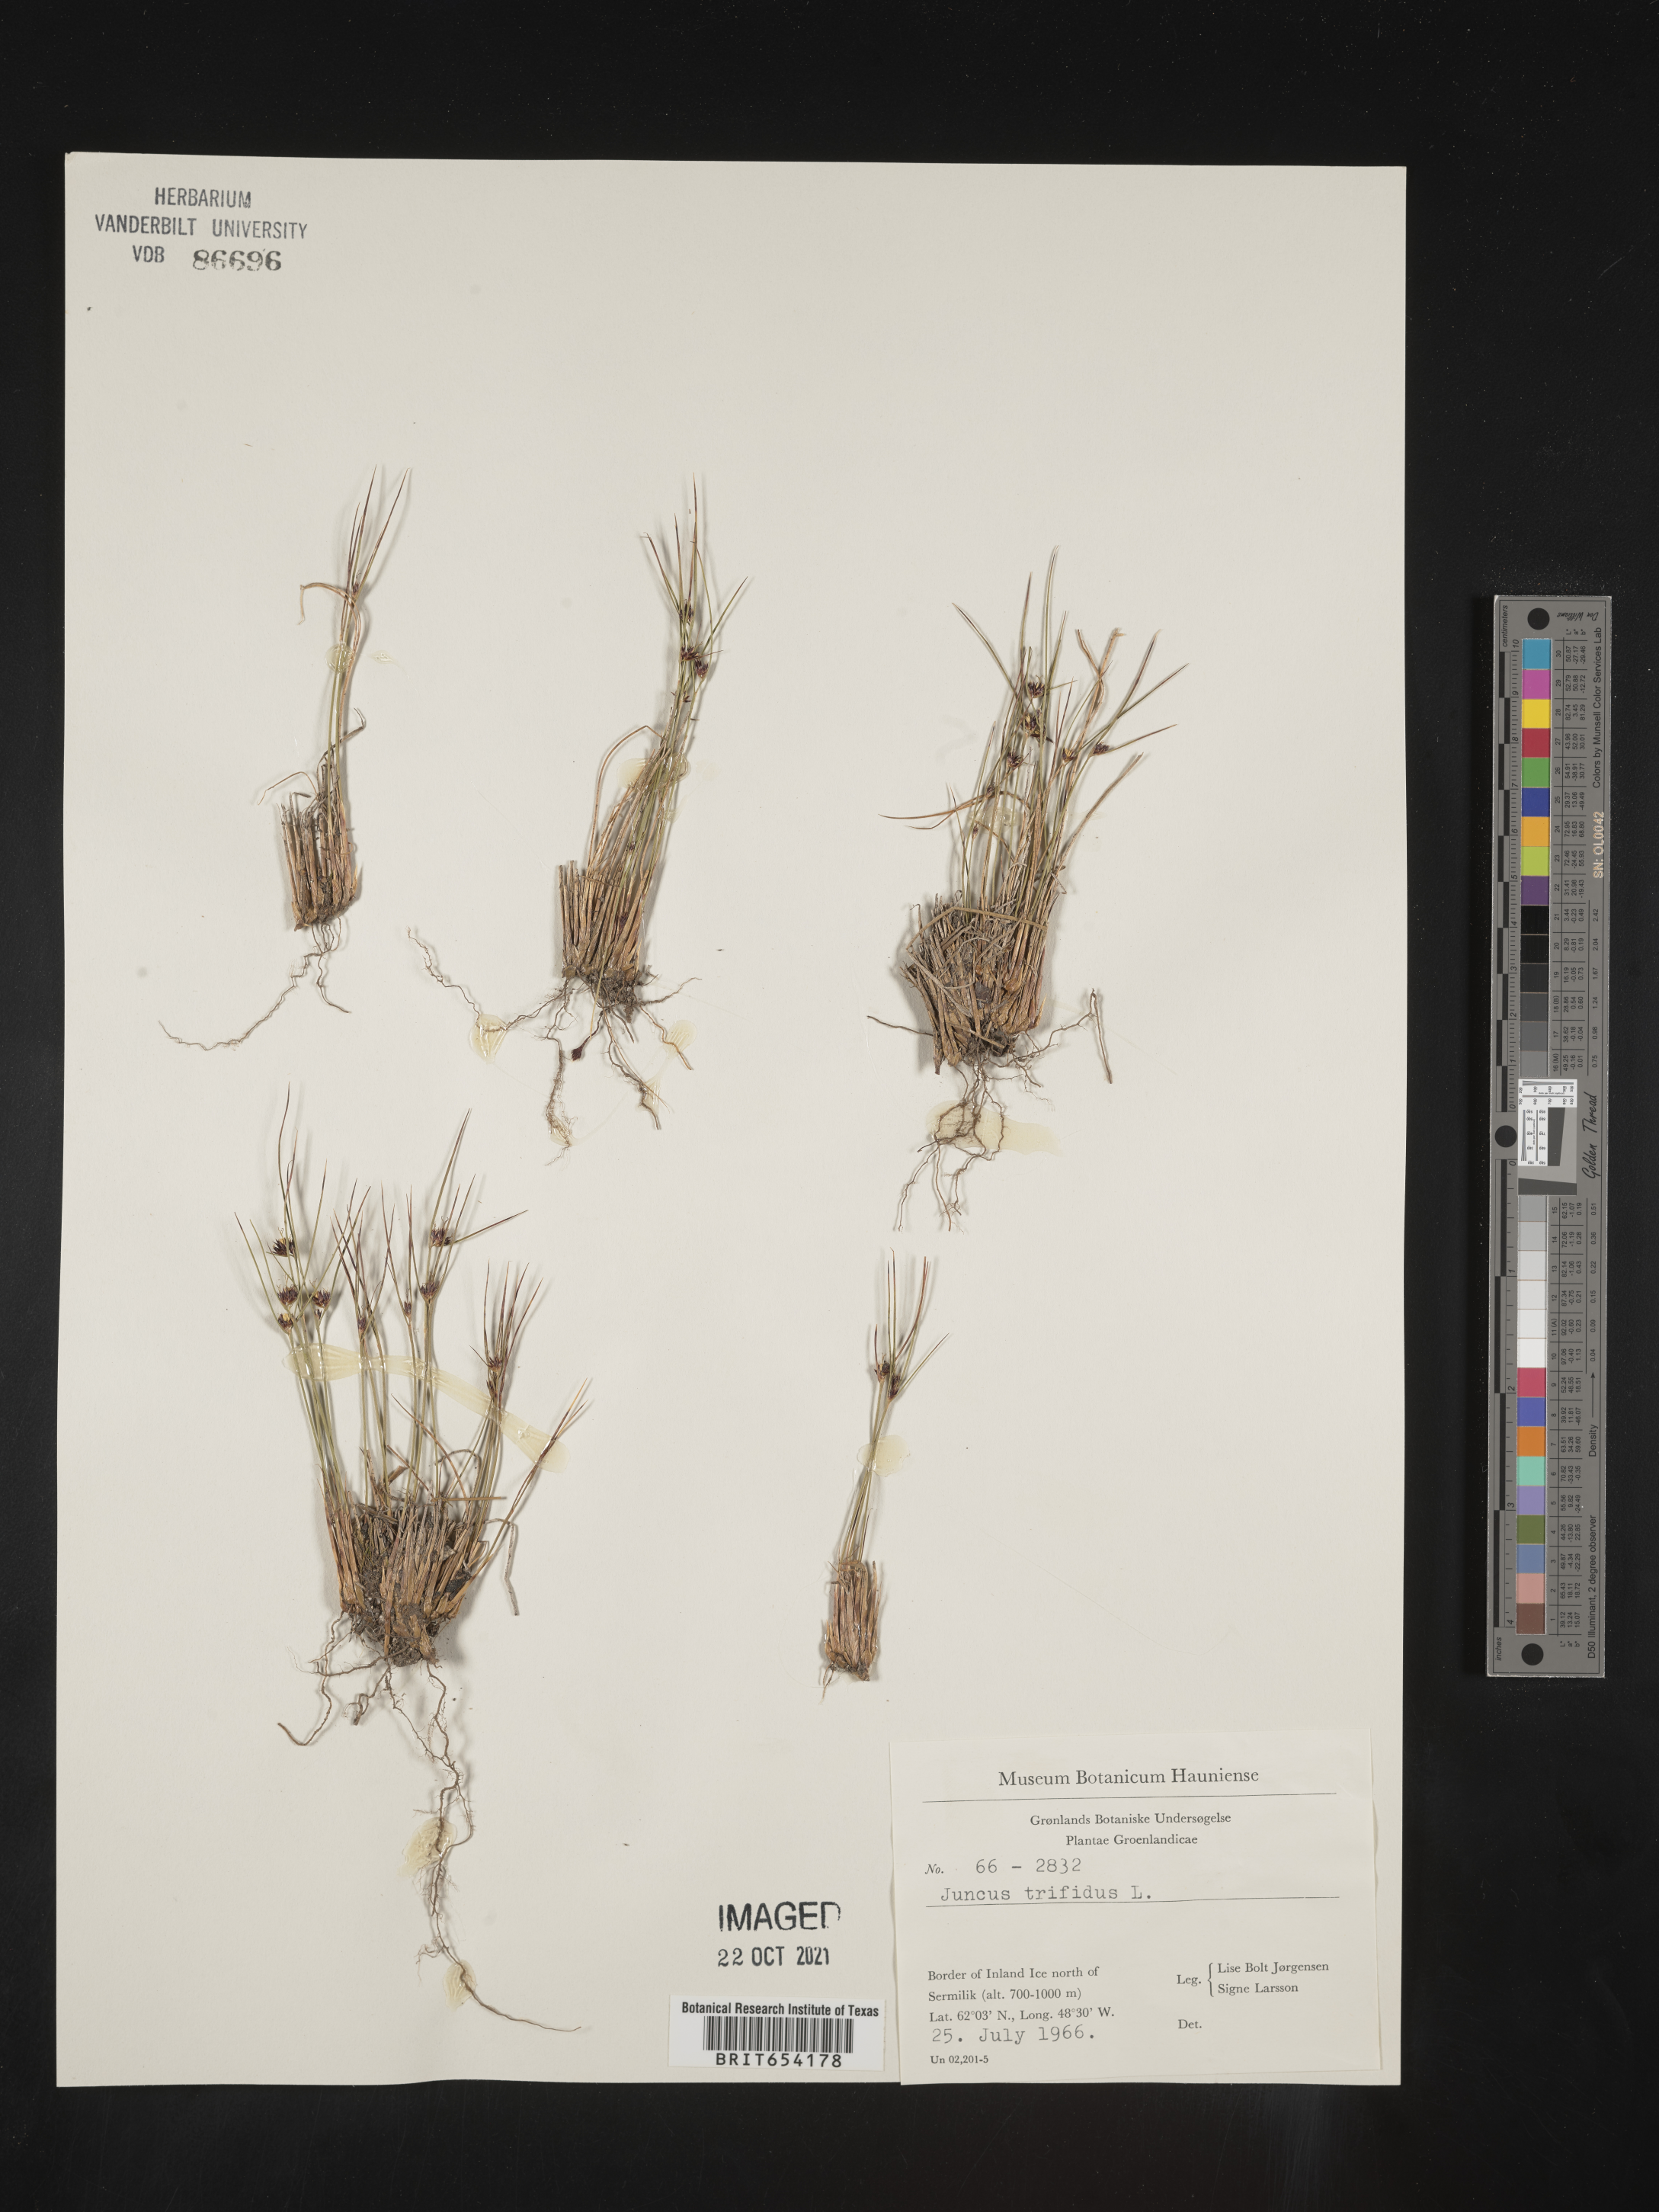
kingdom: Plantae
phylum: Tracheophyta
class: Liliopsida
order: Poales
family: Juncaceae
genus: Juncus
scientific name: Juncus
